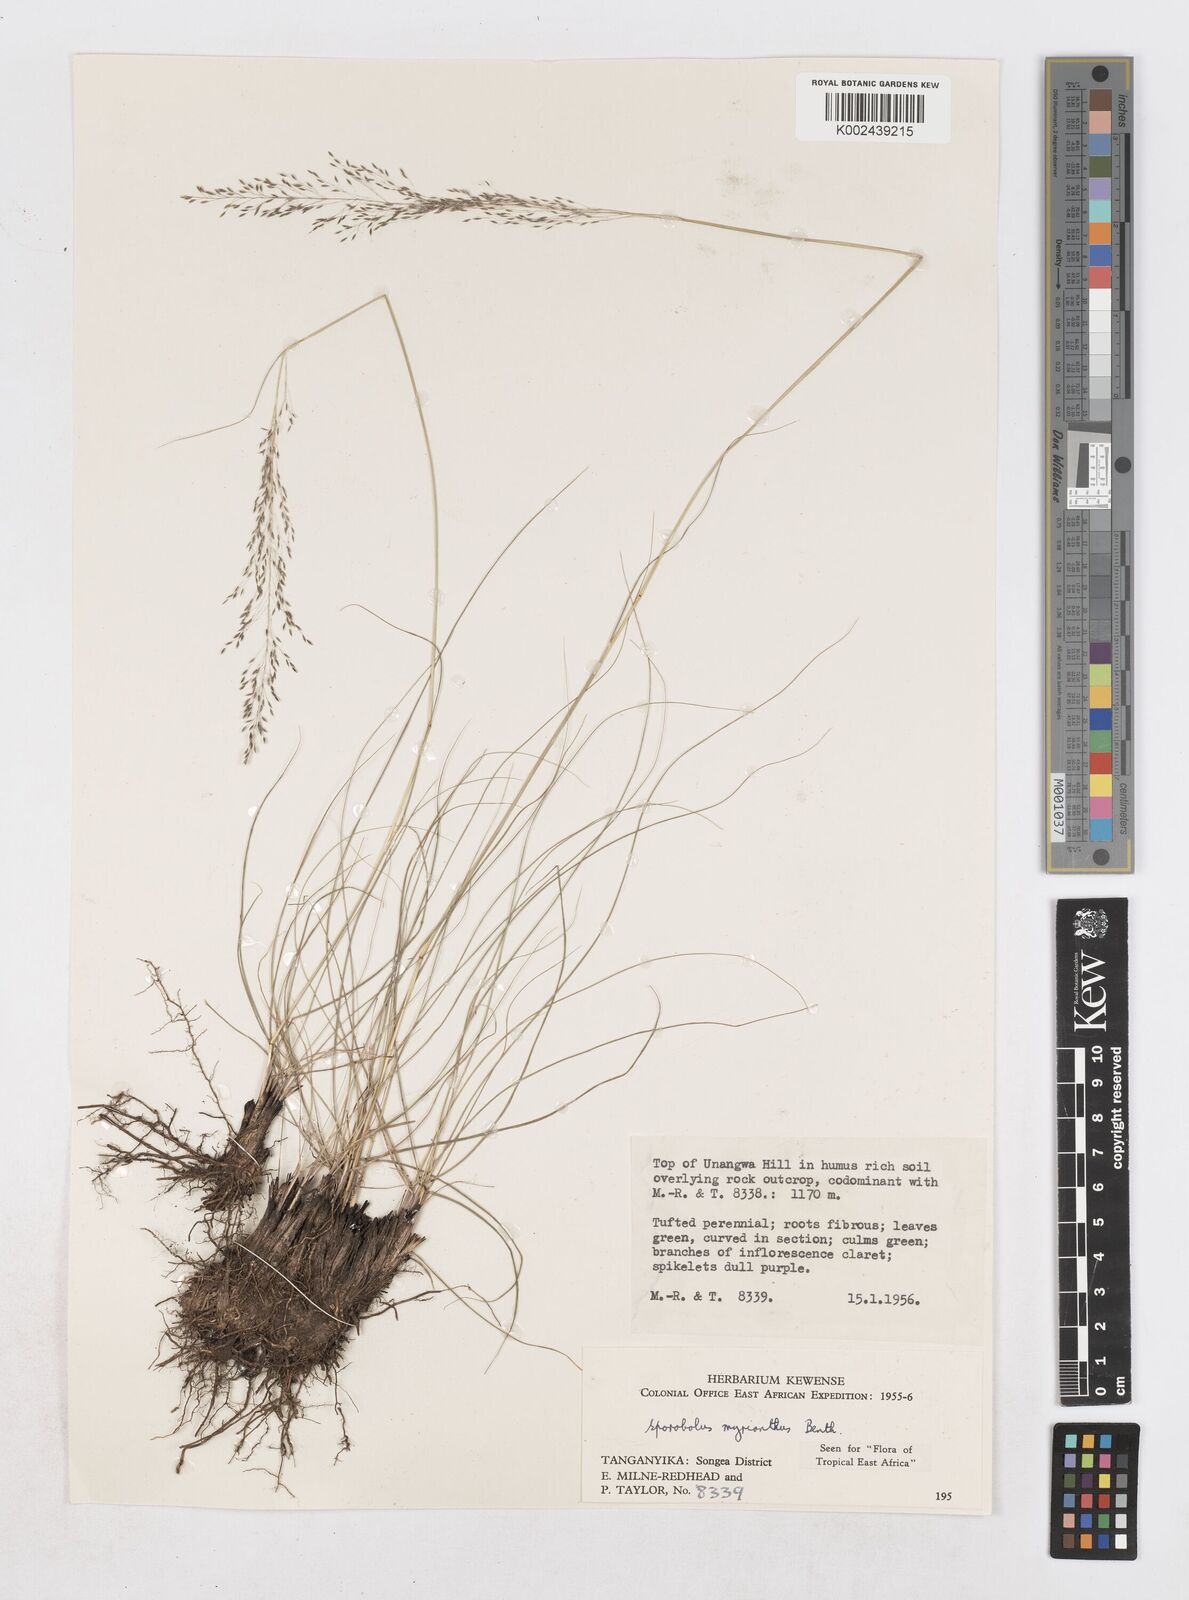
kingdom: Plantae
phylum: Tracheophyta
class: Liliopsida
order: Poales
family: Poaceae
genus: Sporobolus
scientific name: Sporobolus myrianthus
